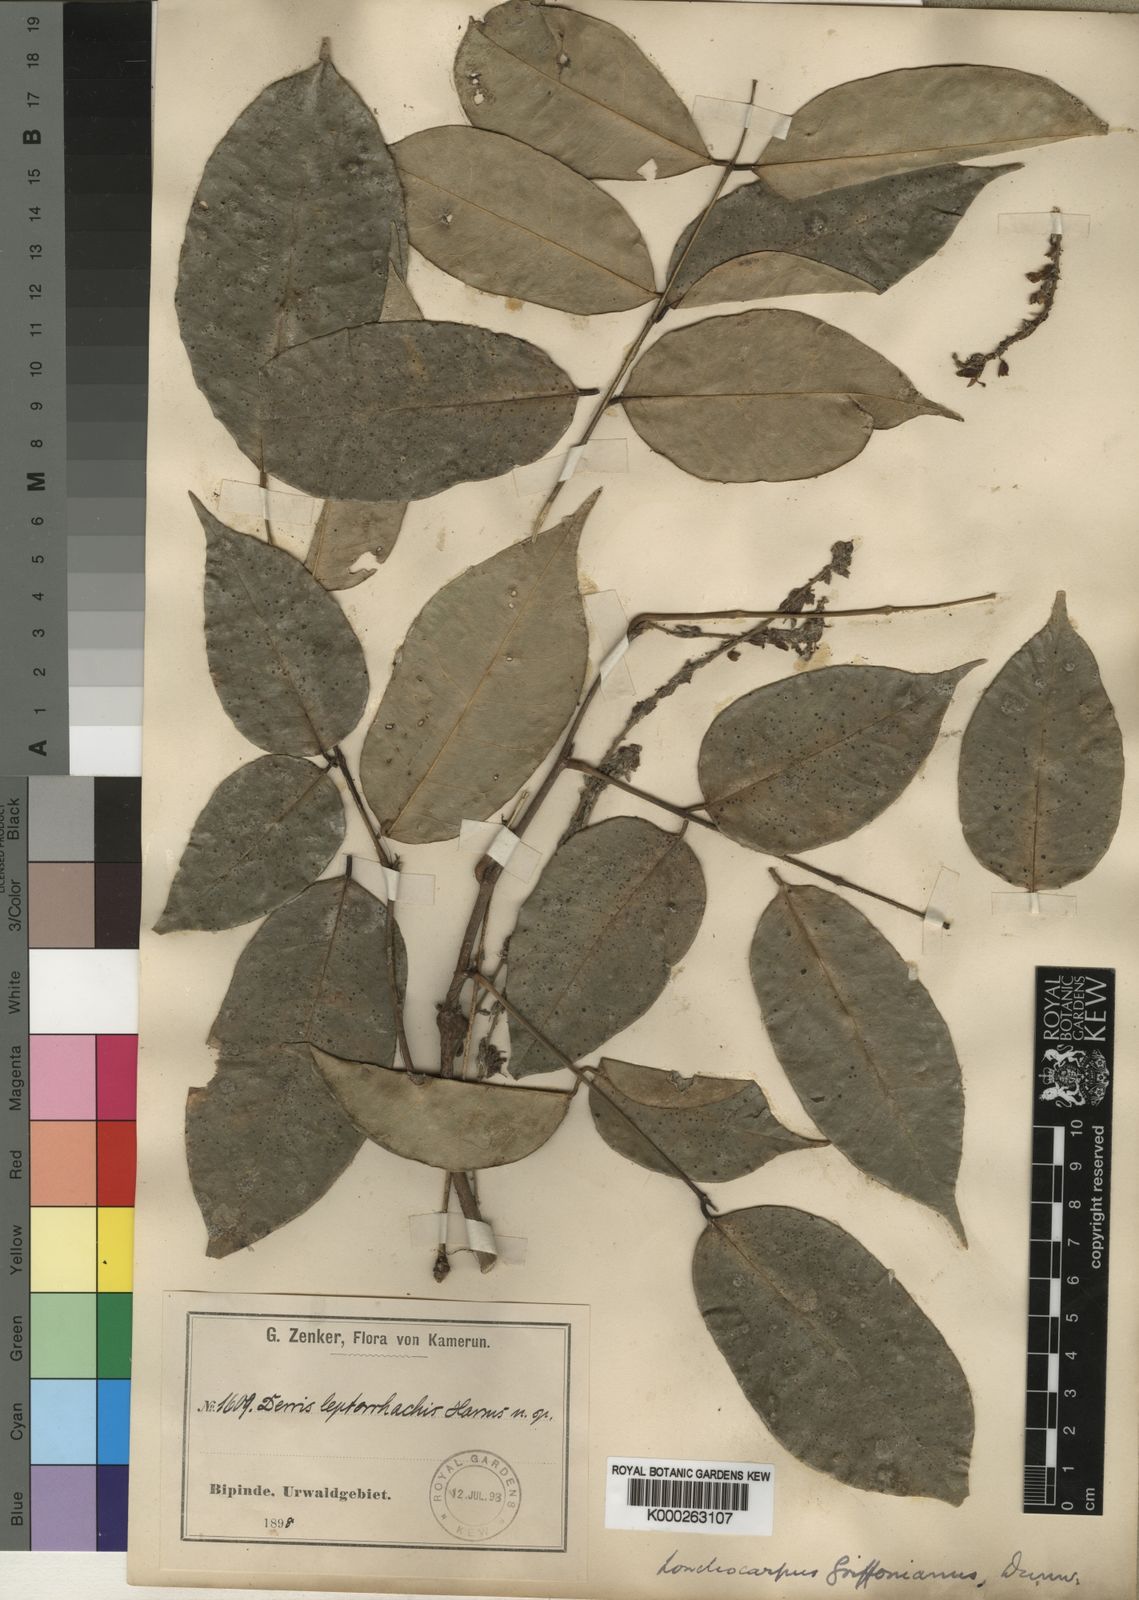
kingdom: Plantae
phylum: Tracheophyta
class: Magnoliopsida
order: Fabales
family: Fabaceae
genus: Millettia
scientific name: Millettia griffoniana
